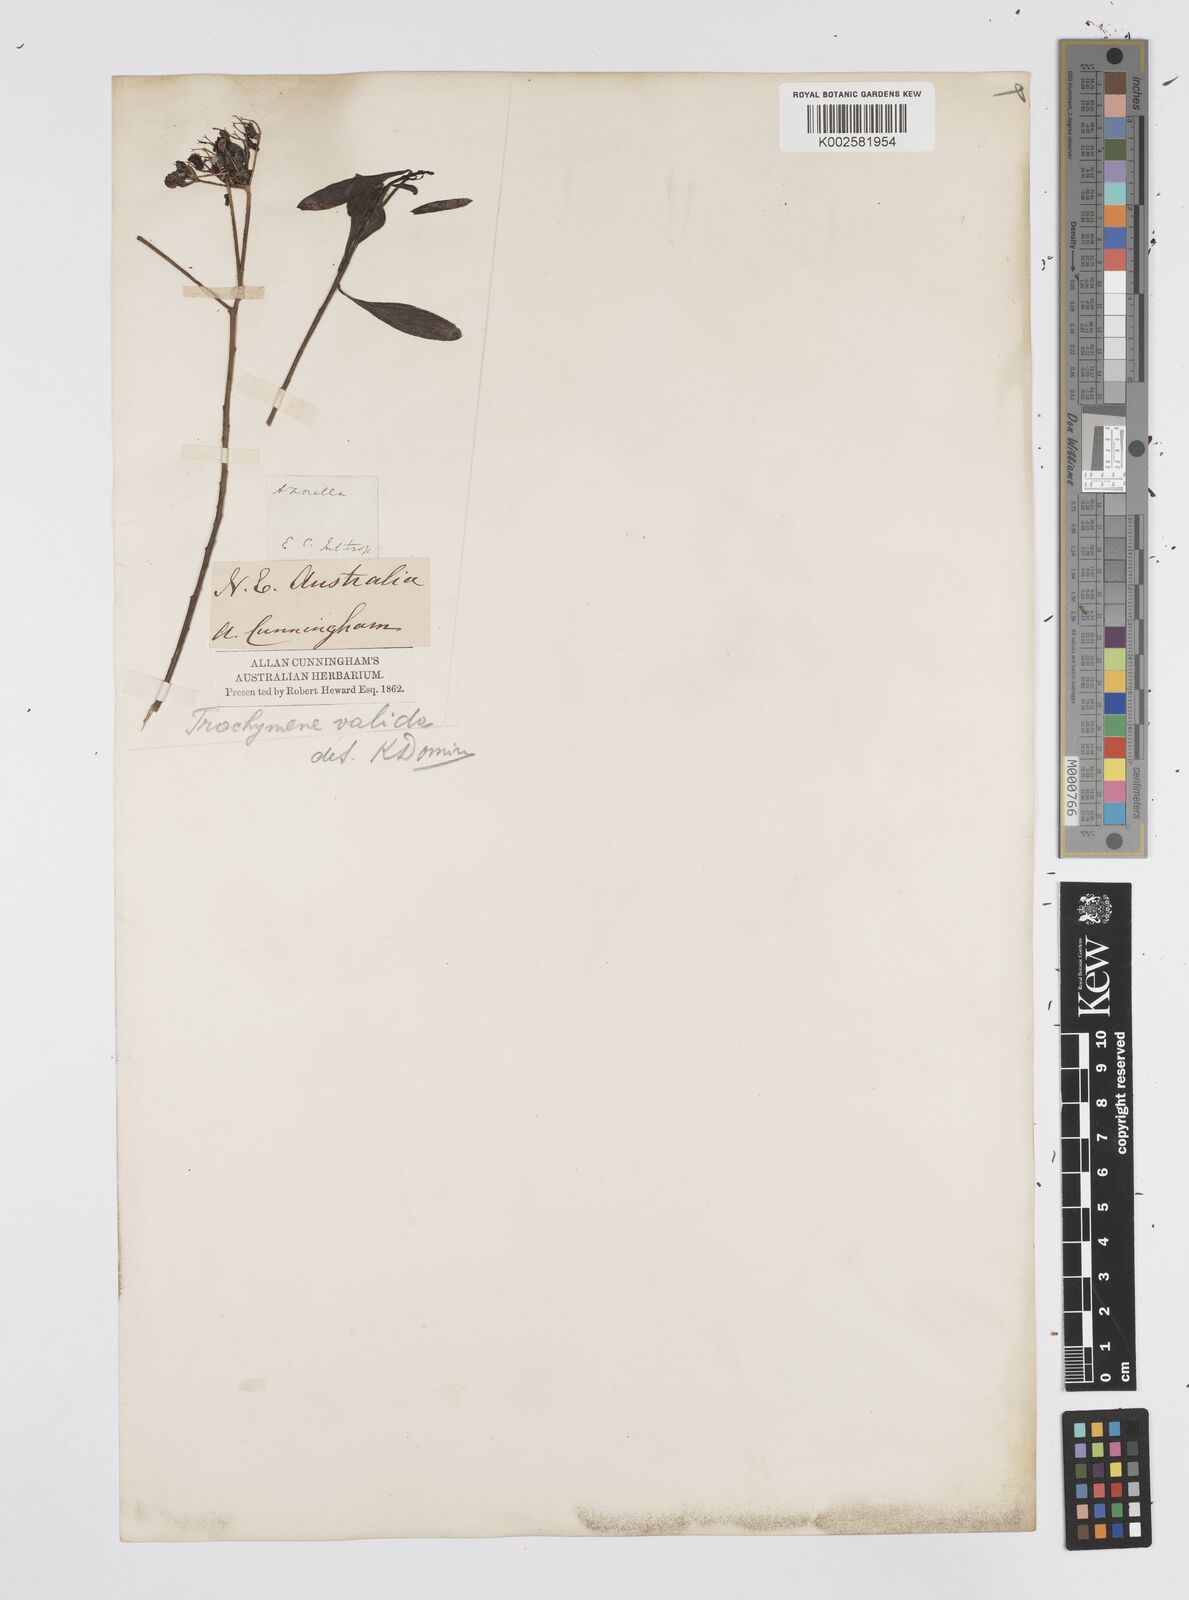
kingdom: Plantae
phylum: Tracheophyta
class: Magnoliopsida
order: Apiales
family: Apiaceae
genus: Platysace
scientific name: Platysace valida
